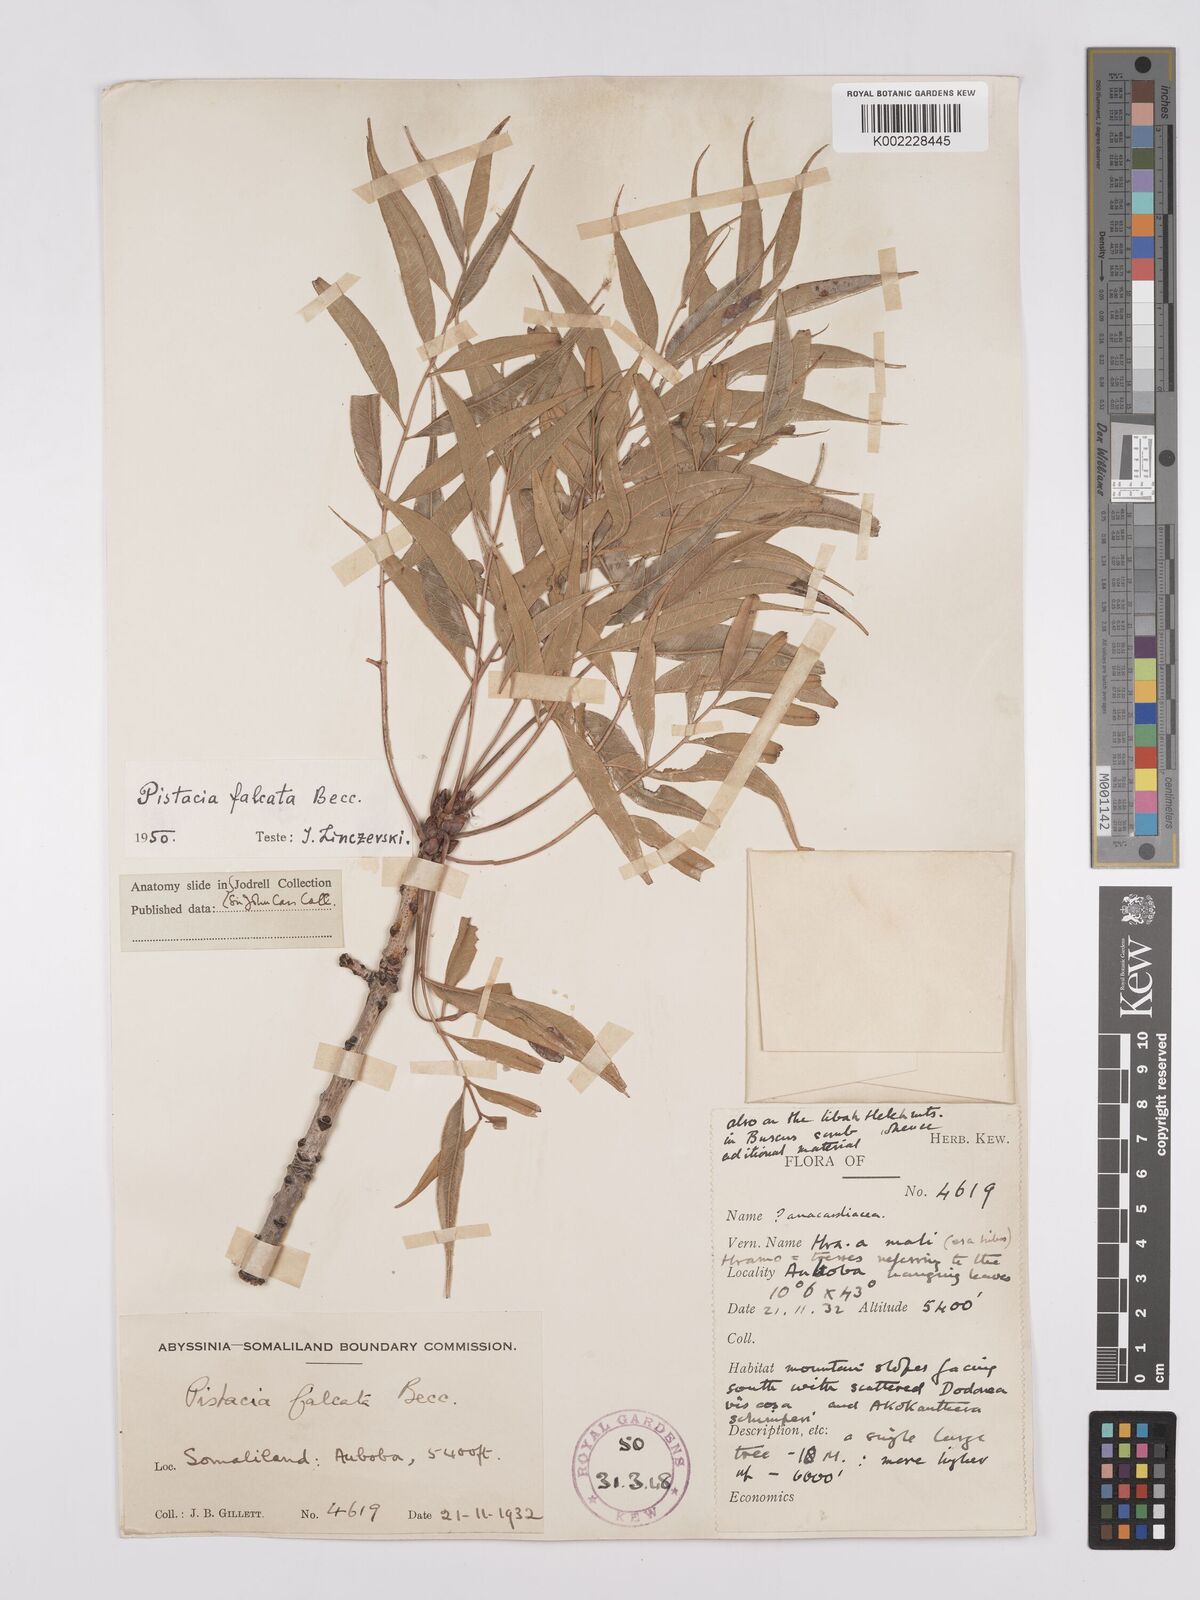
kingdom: Plantae
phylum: Tracheophyta
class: Magnoliopsida
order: Sapindales
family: Anacardiaceae
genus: Pistacia
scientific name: Pistacia falcata
